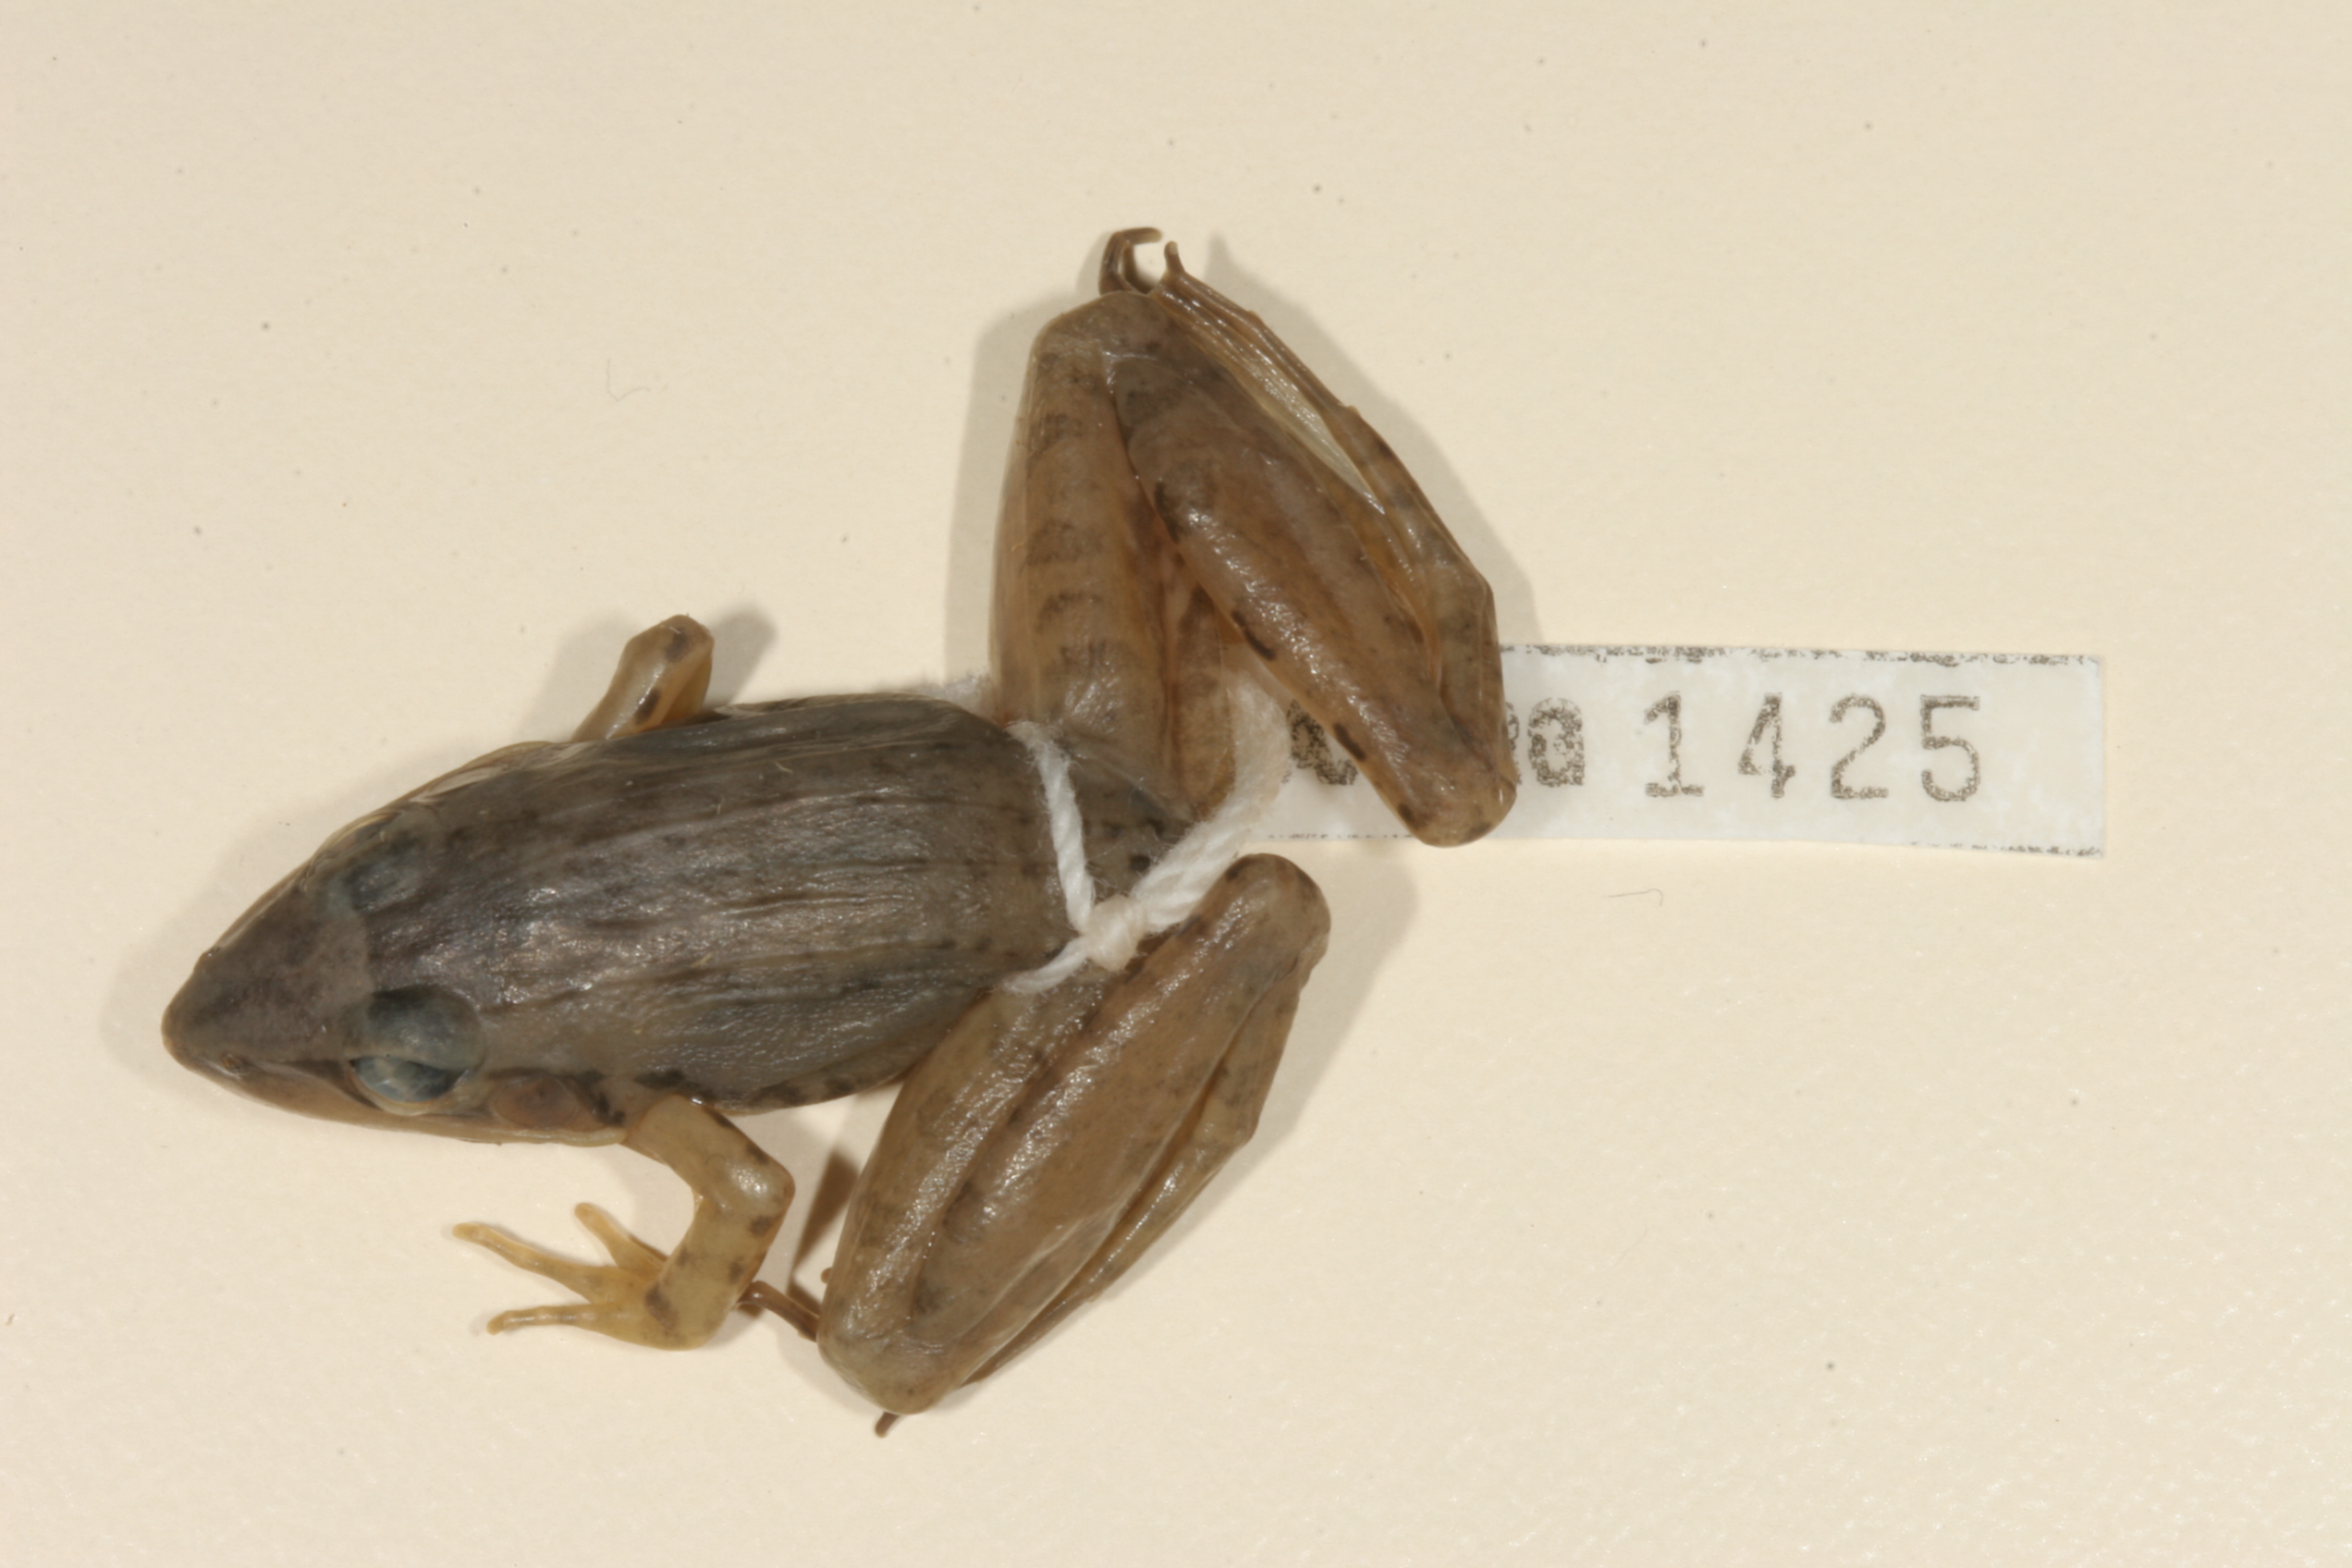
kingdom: Animalia
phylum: Chordata
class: Amphibia
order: Anura
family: Ptychadenidae
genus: Ptychadena
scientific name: Ptychadena anchietae
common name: Anchieta's ridged frog
